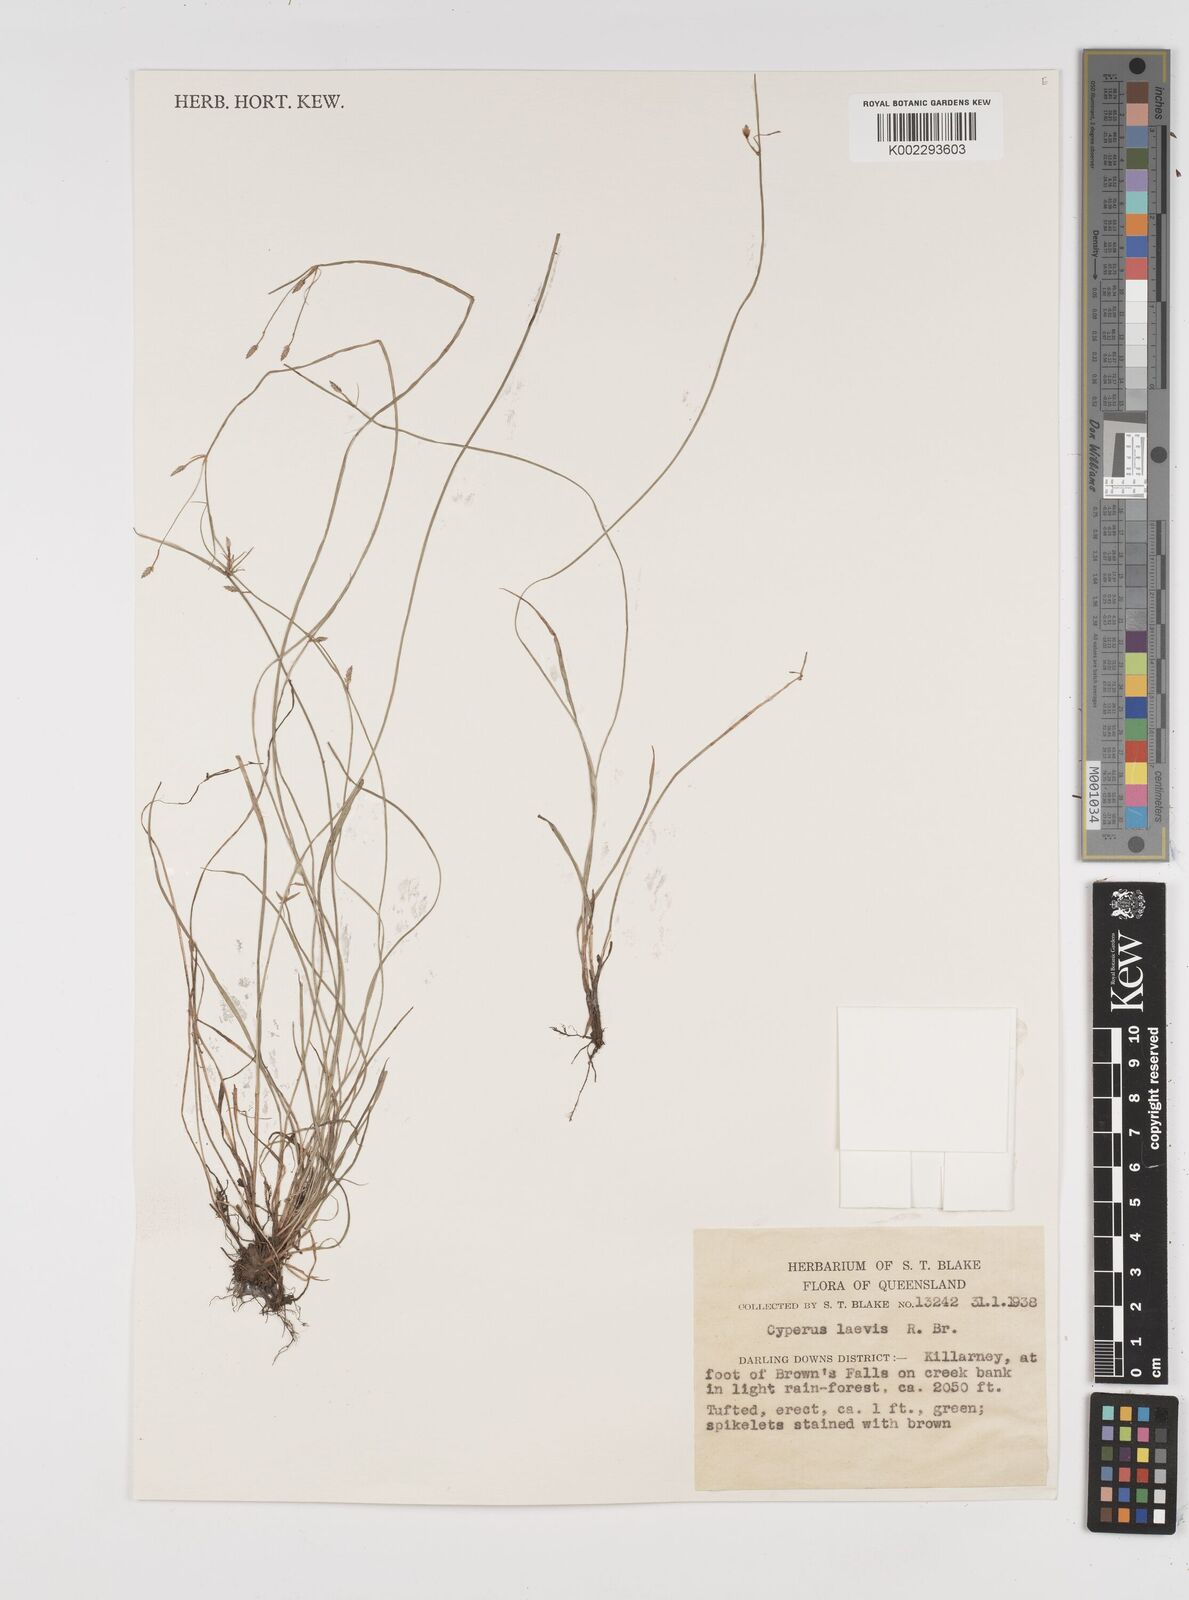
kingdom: Plantae
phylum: Tracheophyta
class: Liliopsida
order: Poales
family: Cyperaceae
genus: Cyperus
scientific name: Cyperus laevis
